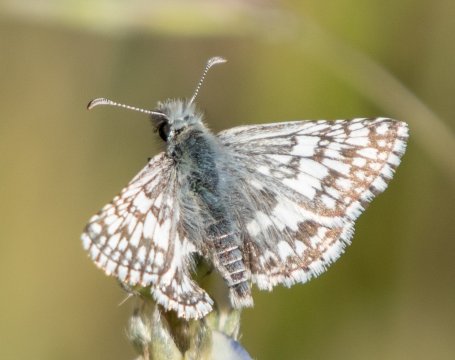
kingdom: Animalia
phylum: Arthropoda
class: Insecta
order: Lepidoptera
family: Hesperiidae
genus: Pyrgus
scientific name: Pyrgus communis
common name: White Checkered-Skipper
